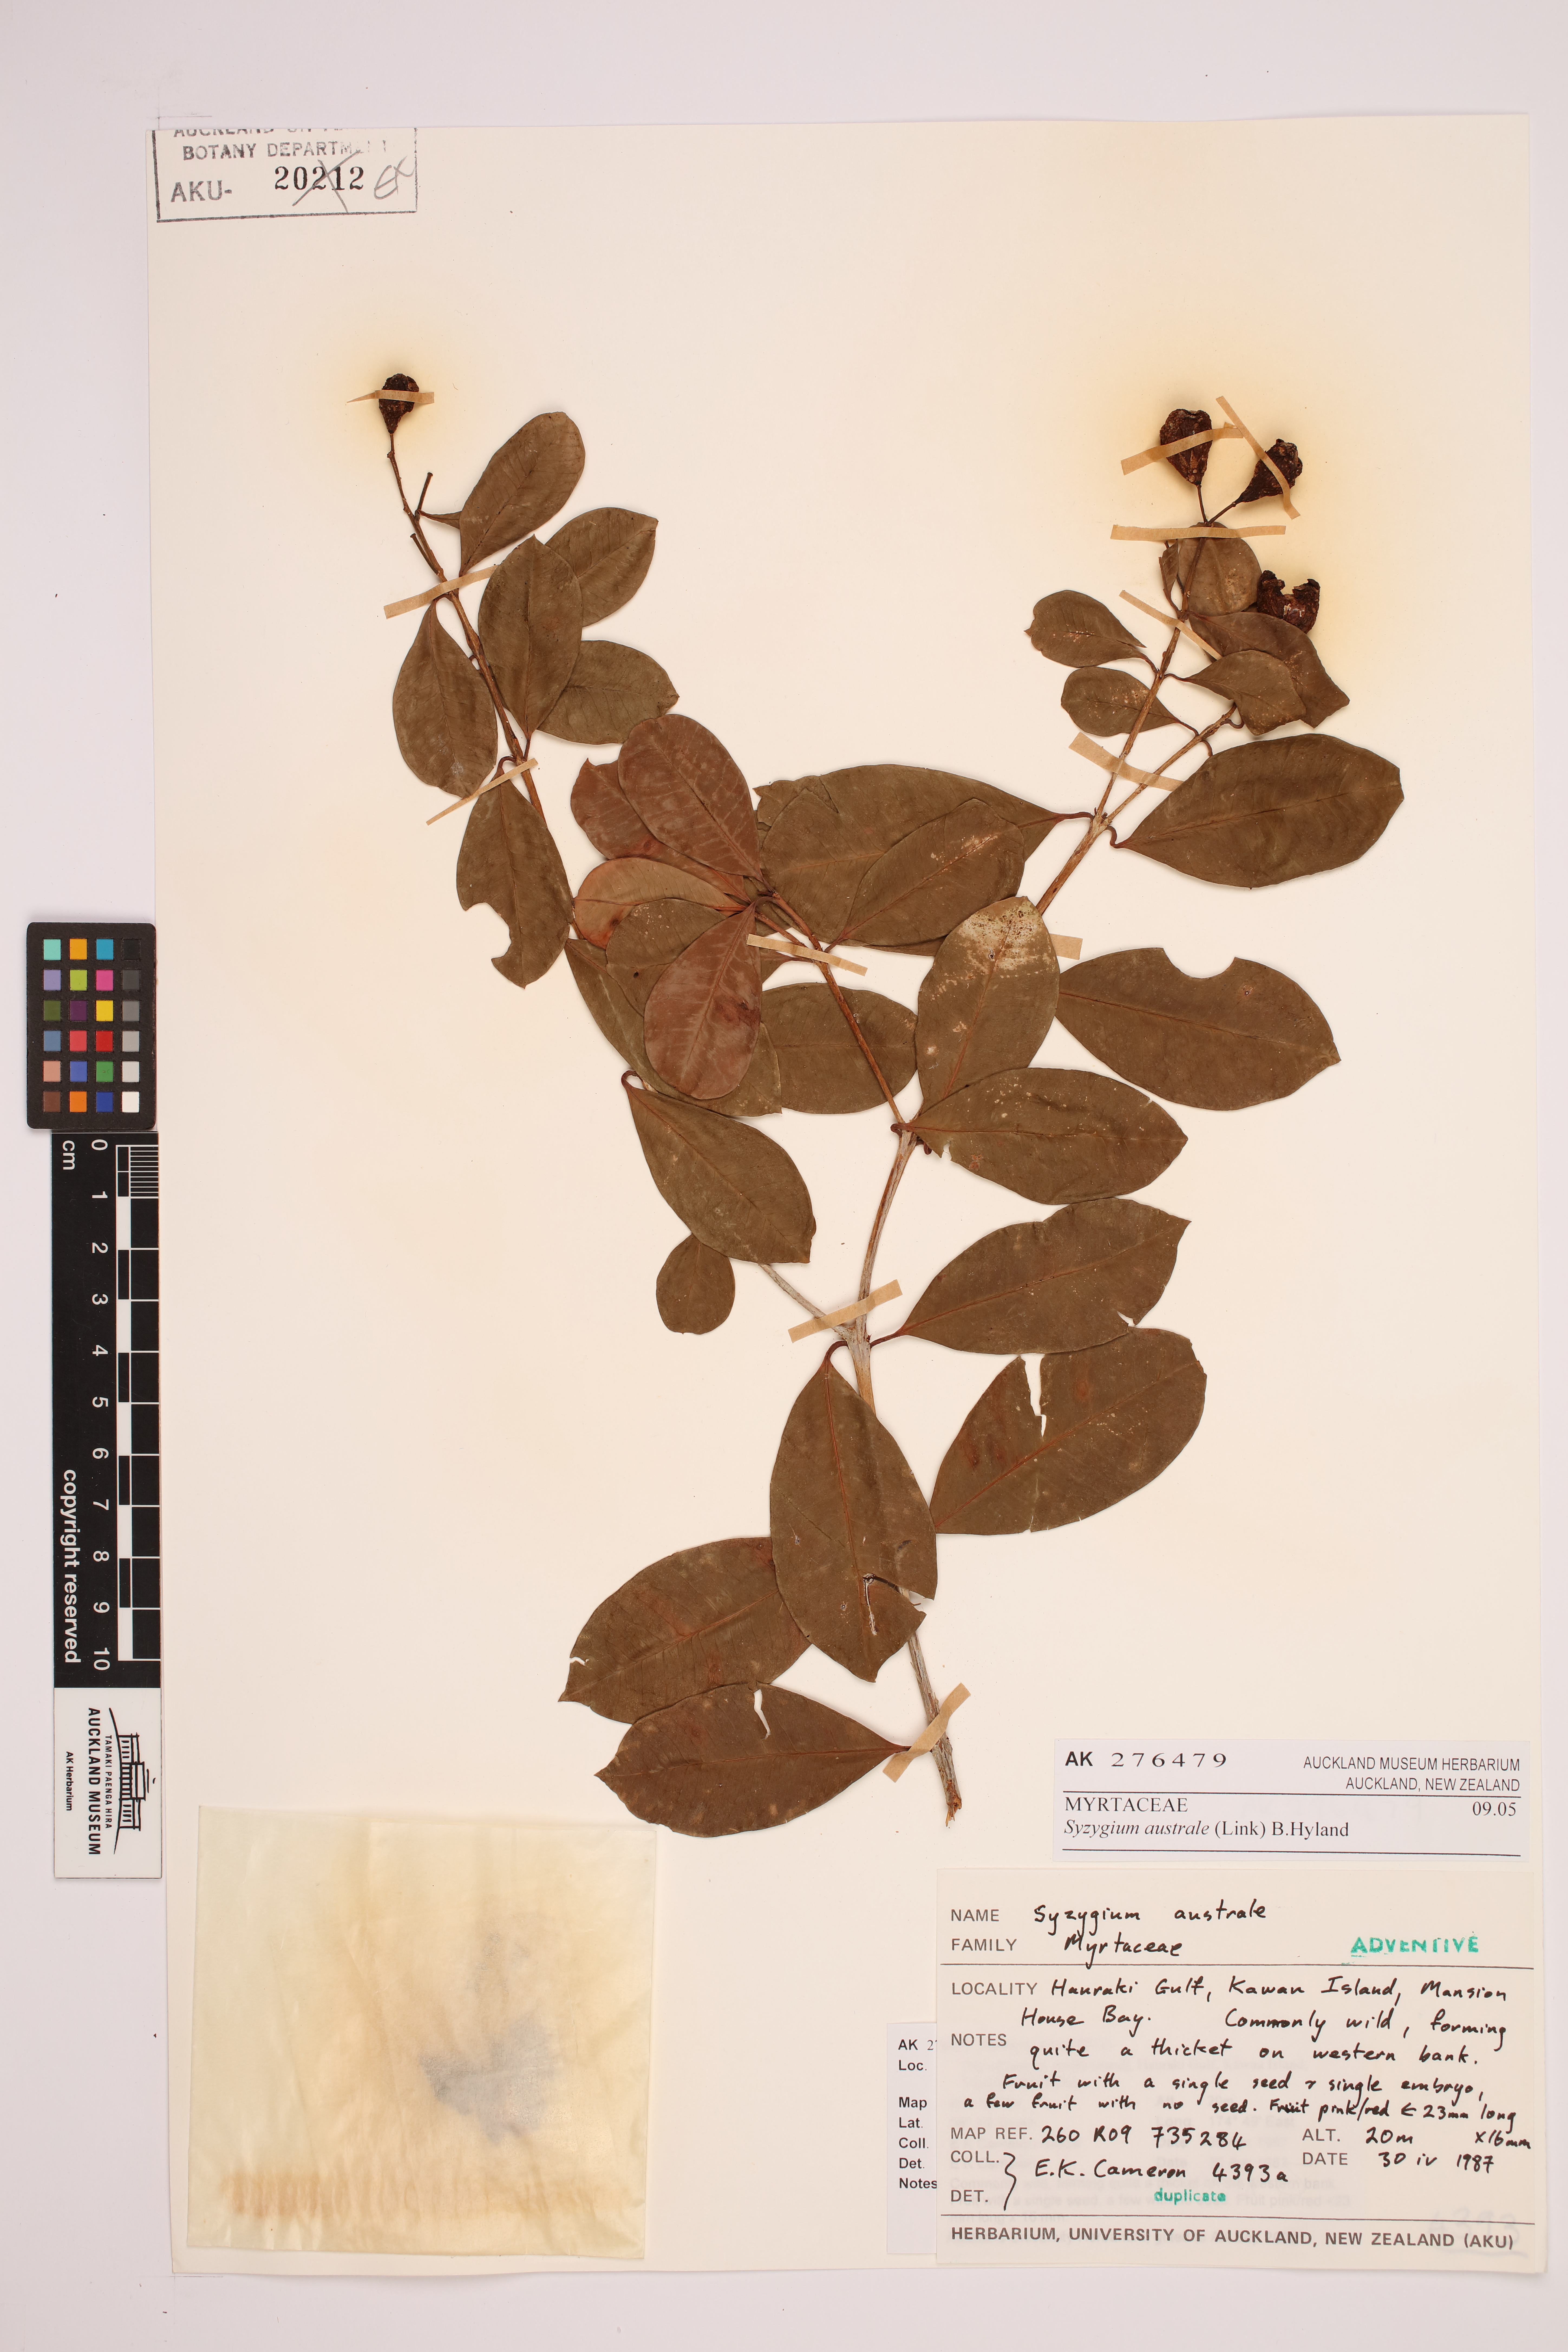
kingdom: Plantae
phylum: Tracheophyta
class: Magnoliopsida
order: Myrtales
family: Myrtaceae
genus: Syzygium
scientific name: Syzygium australe
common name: Australian brush-cherry
